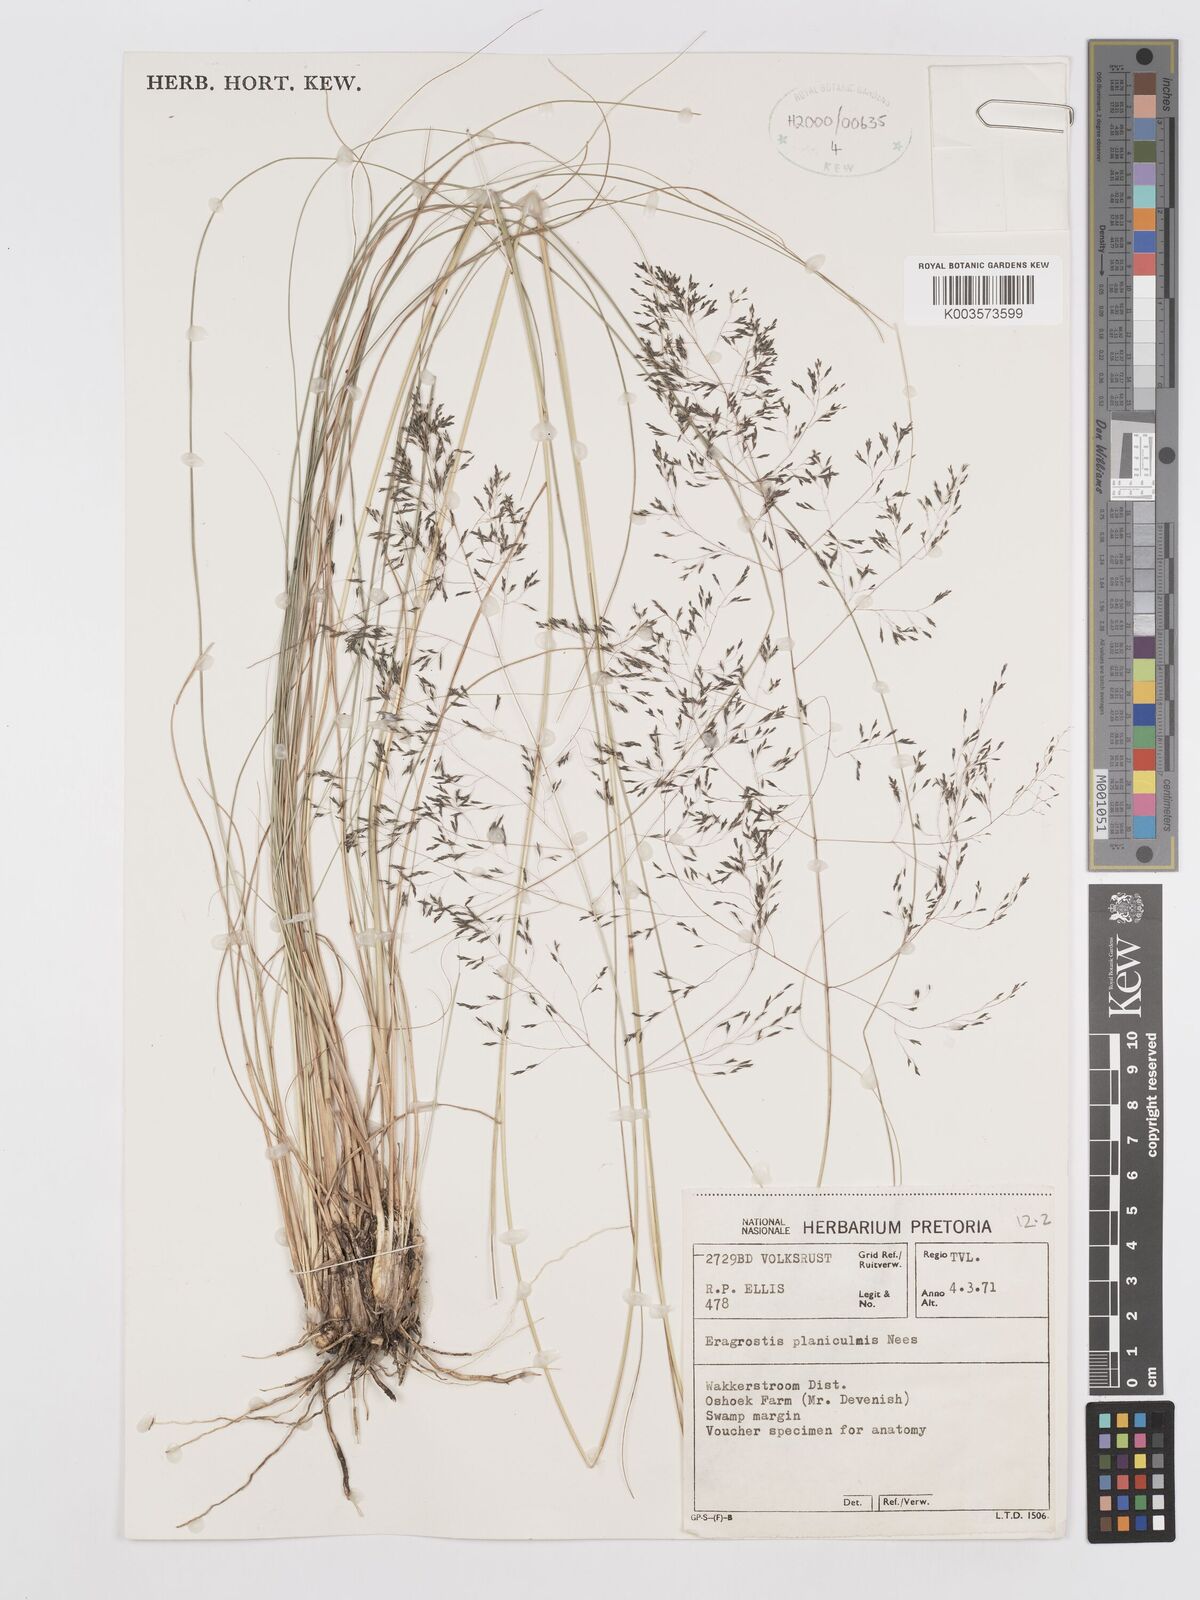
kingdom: Plantae
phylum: Tracheophyta
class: Liliopsida
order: Poales
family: Poaceae
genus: Eragrostis
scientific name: Eragrostis planiculmis
